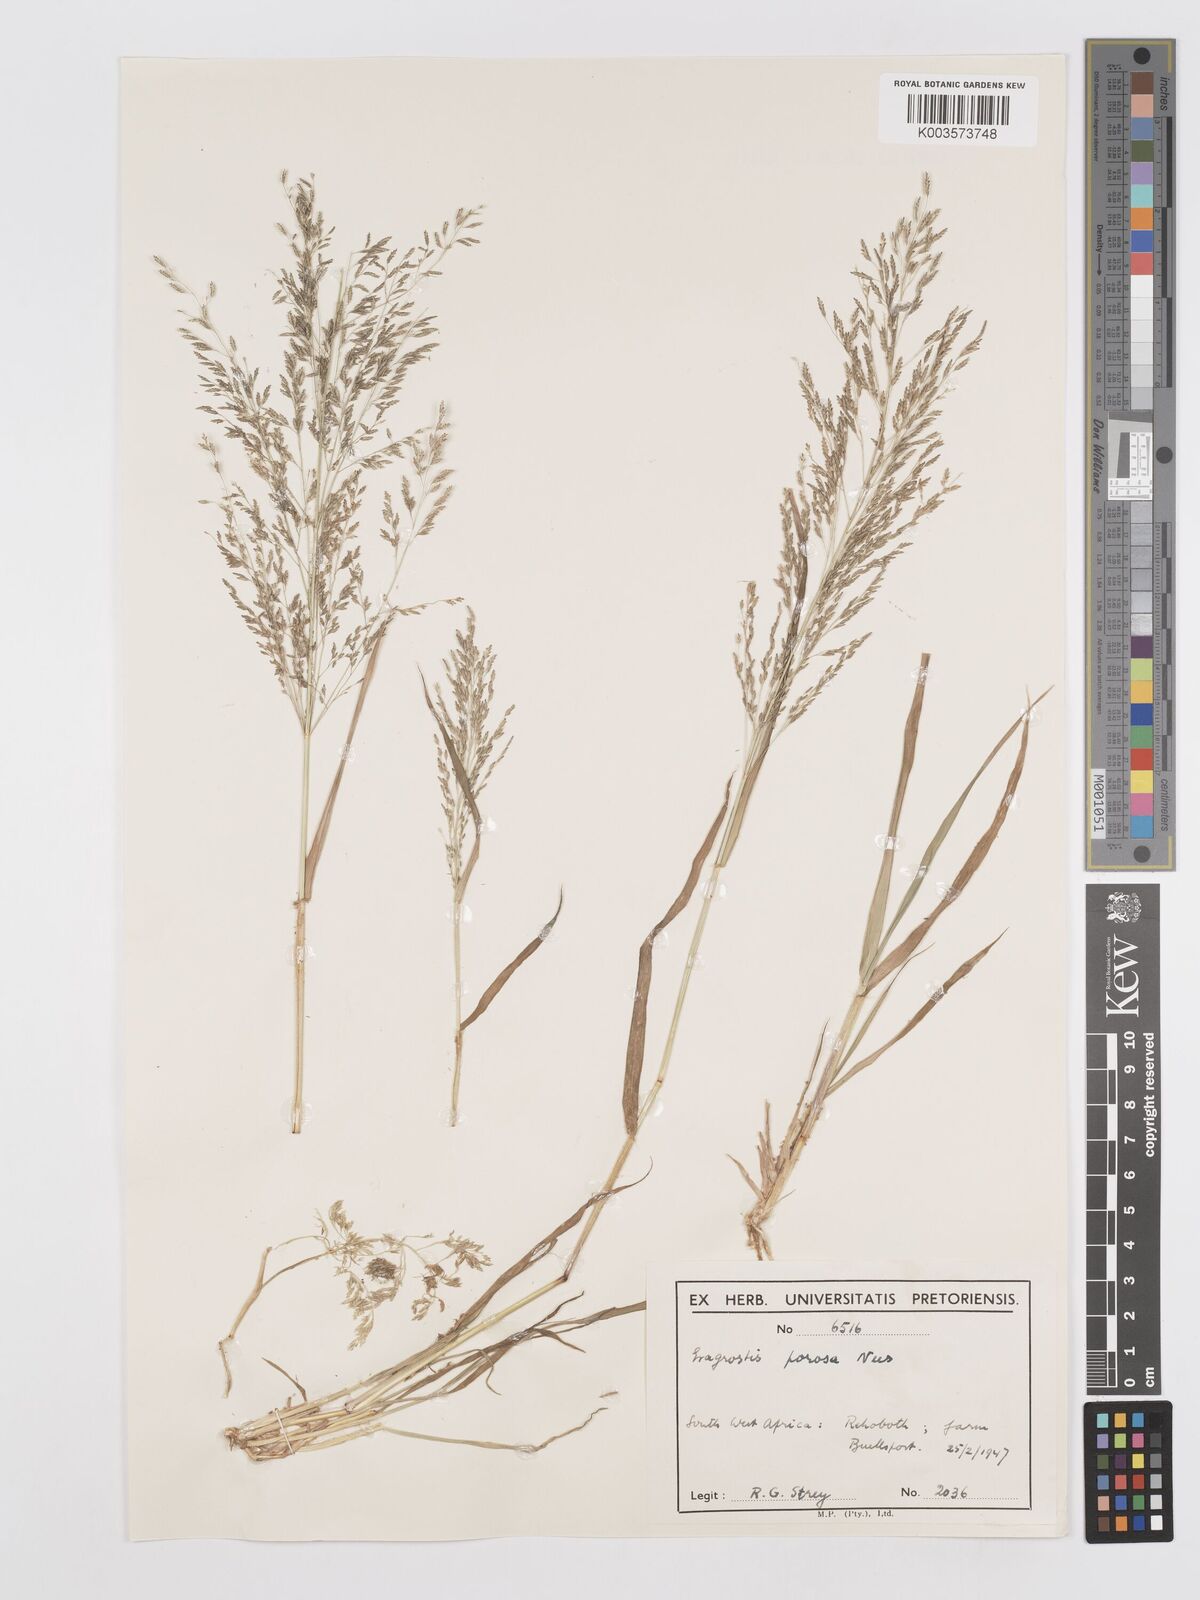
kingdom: Plantae
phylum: Tracheophyta
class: Liliopsida
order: Poales
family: Poaceae
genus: Eragrostis
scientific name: Eragrostis porosa
